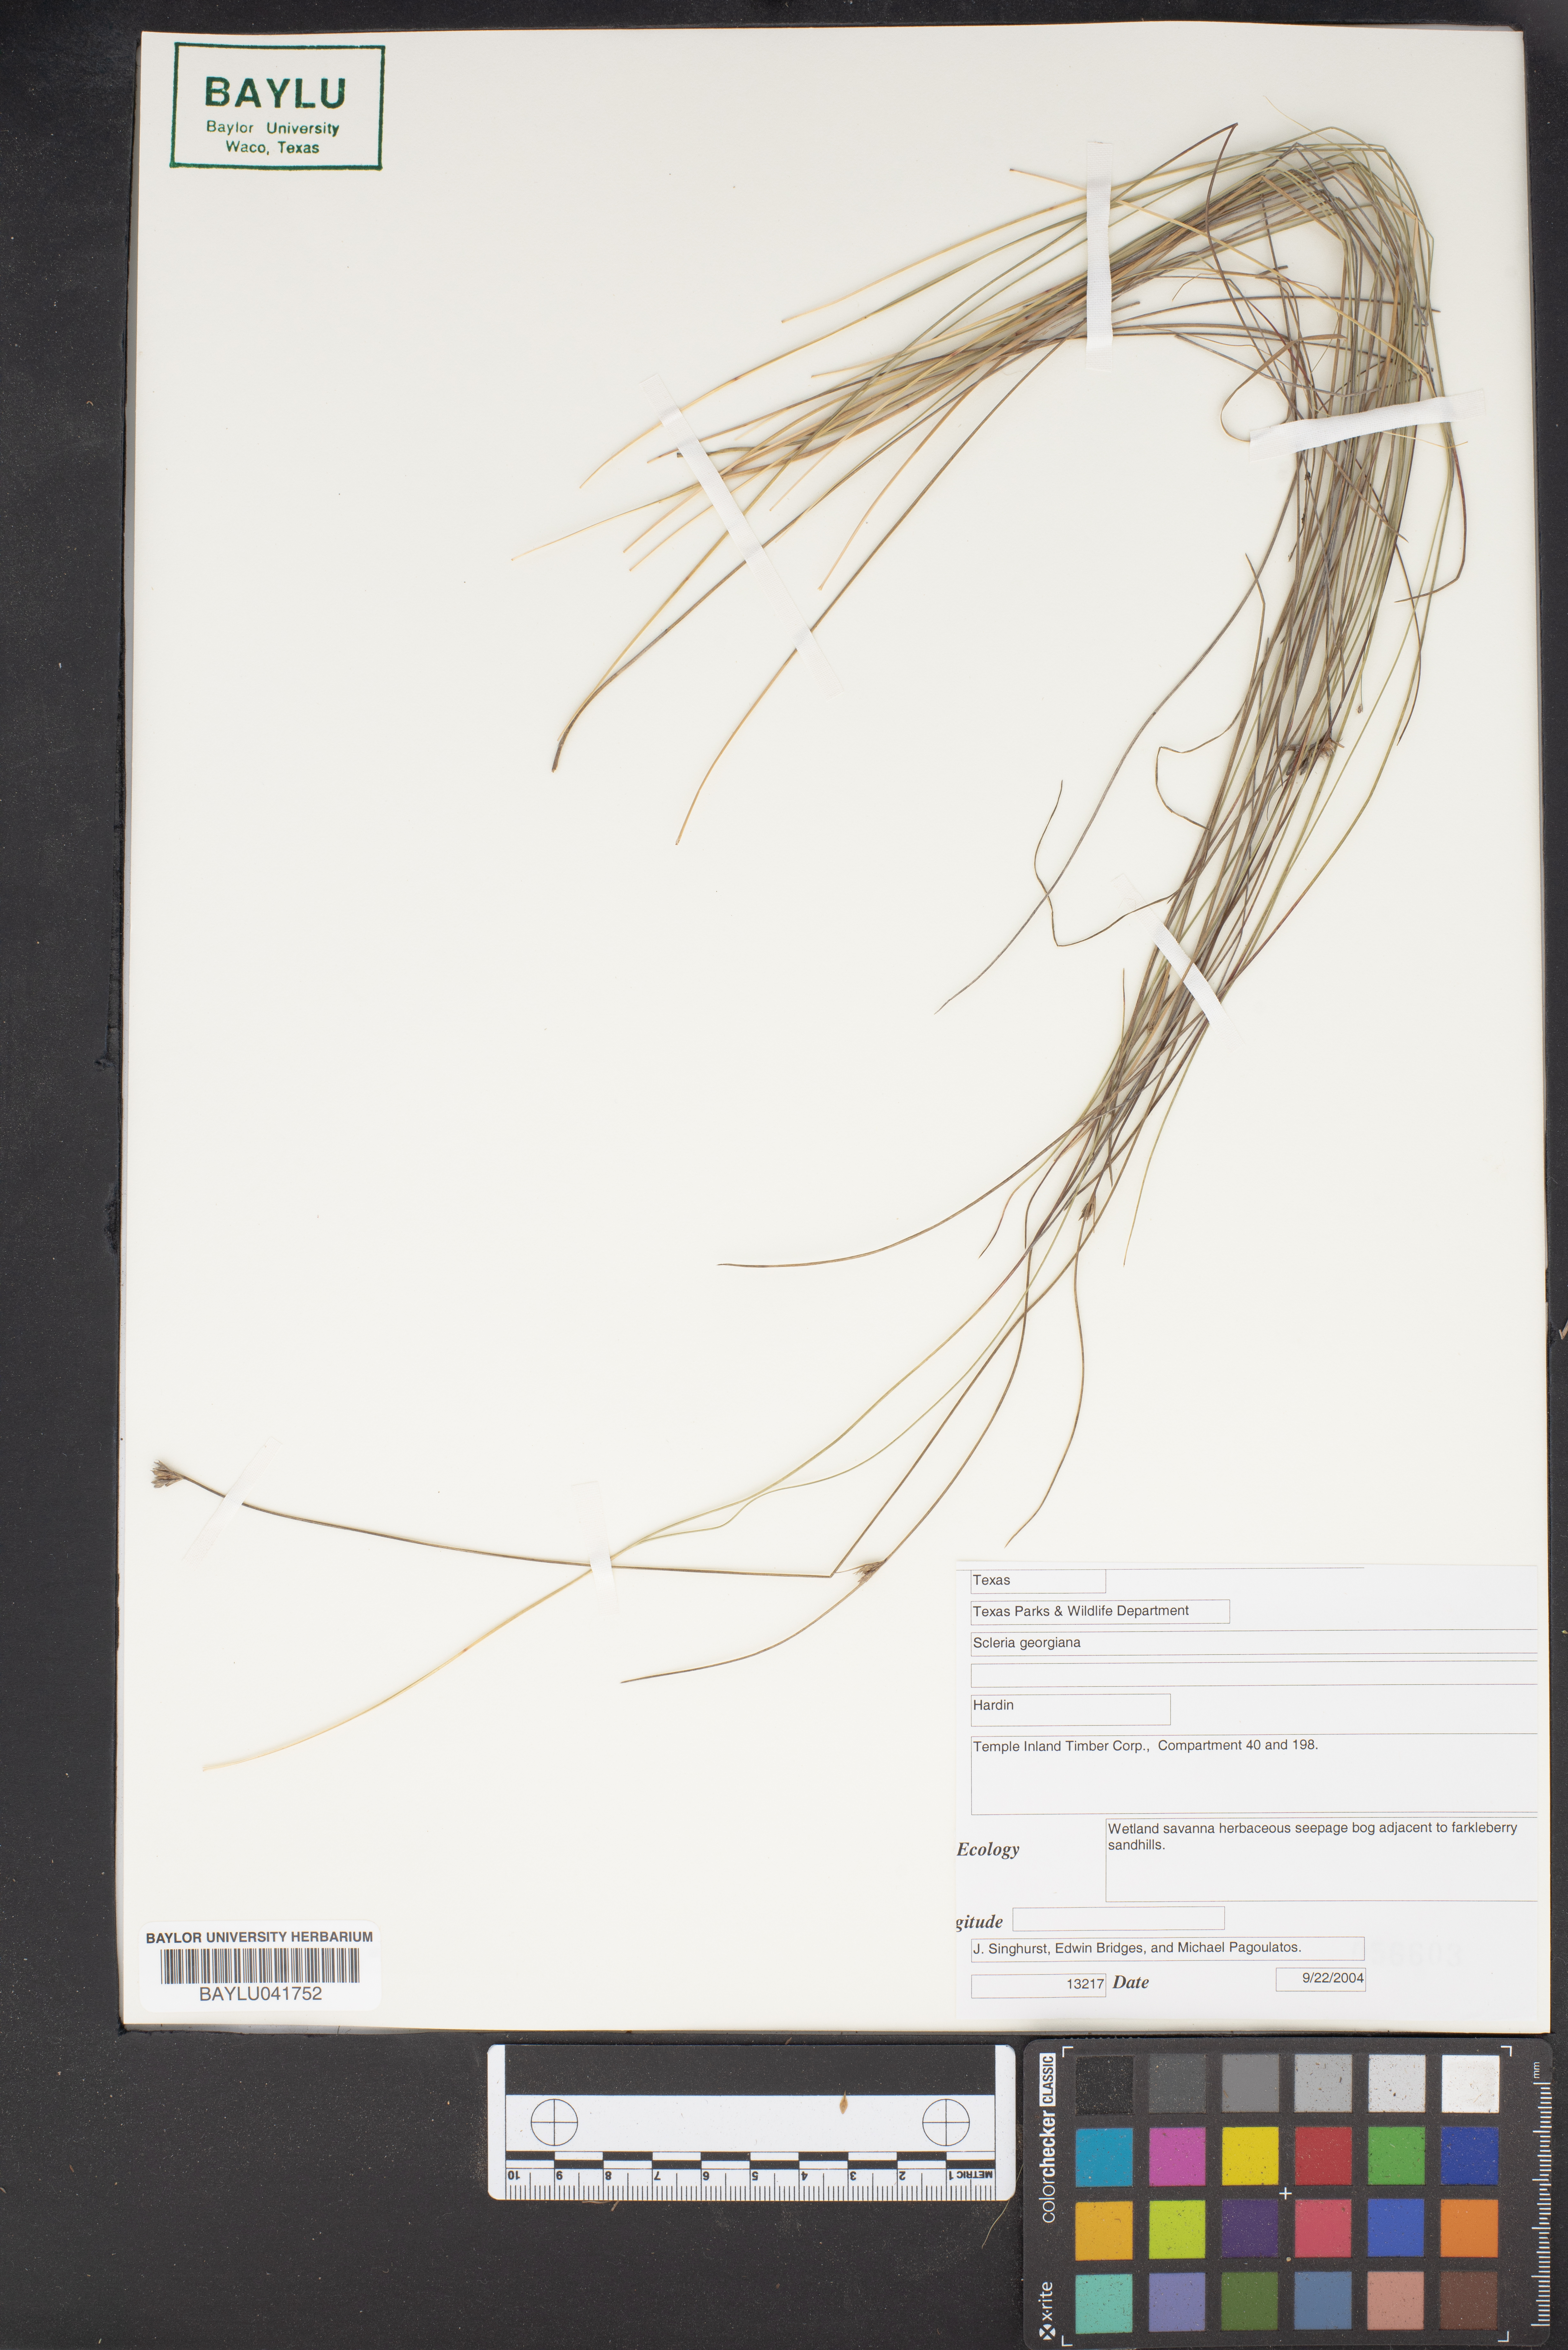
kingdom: Plantae
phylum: Tracheophyta
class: Liliopsida
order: Poales
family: Cyperaceae
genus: Scleria
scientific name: Scleria georgiana
